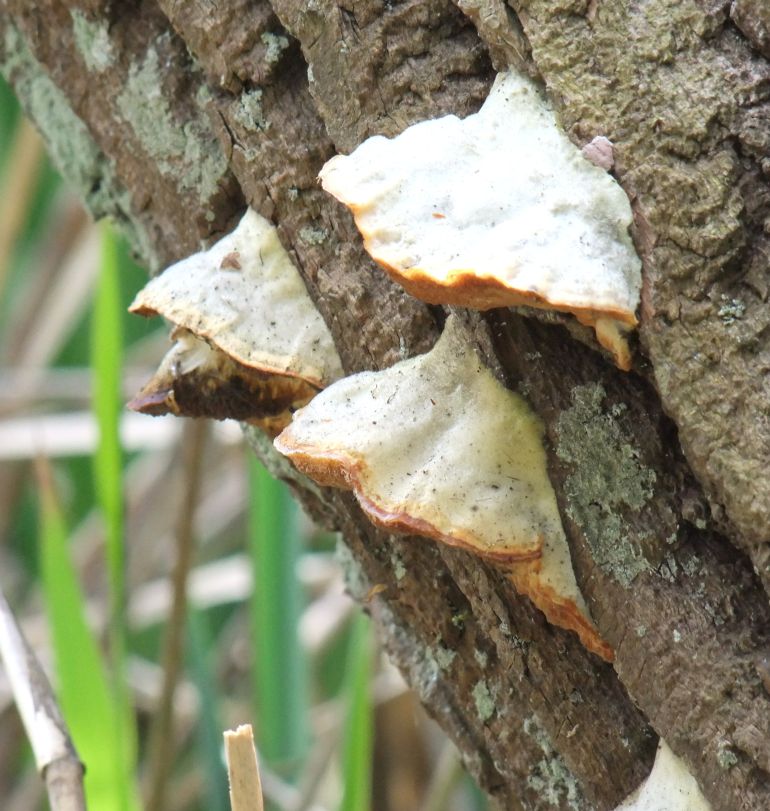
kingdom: Fungi
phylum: Basidiomycota
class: Agaricomycetes
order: Polyporales
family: Polyporaceae
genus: Trametes
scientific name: Trametes suaveolens
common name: vellugtende læderporesvamp
